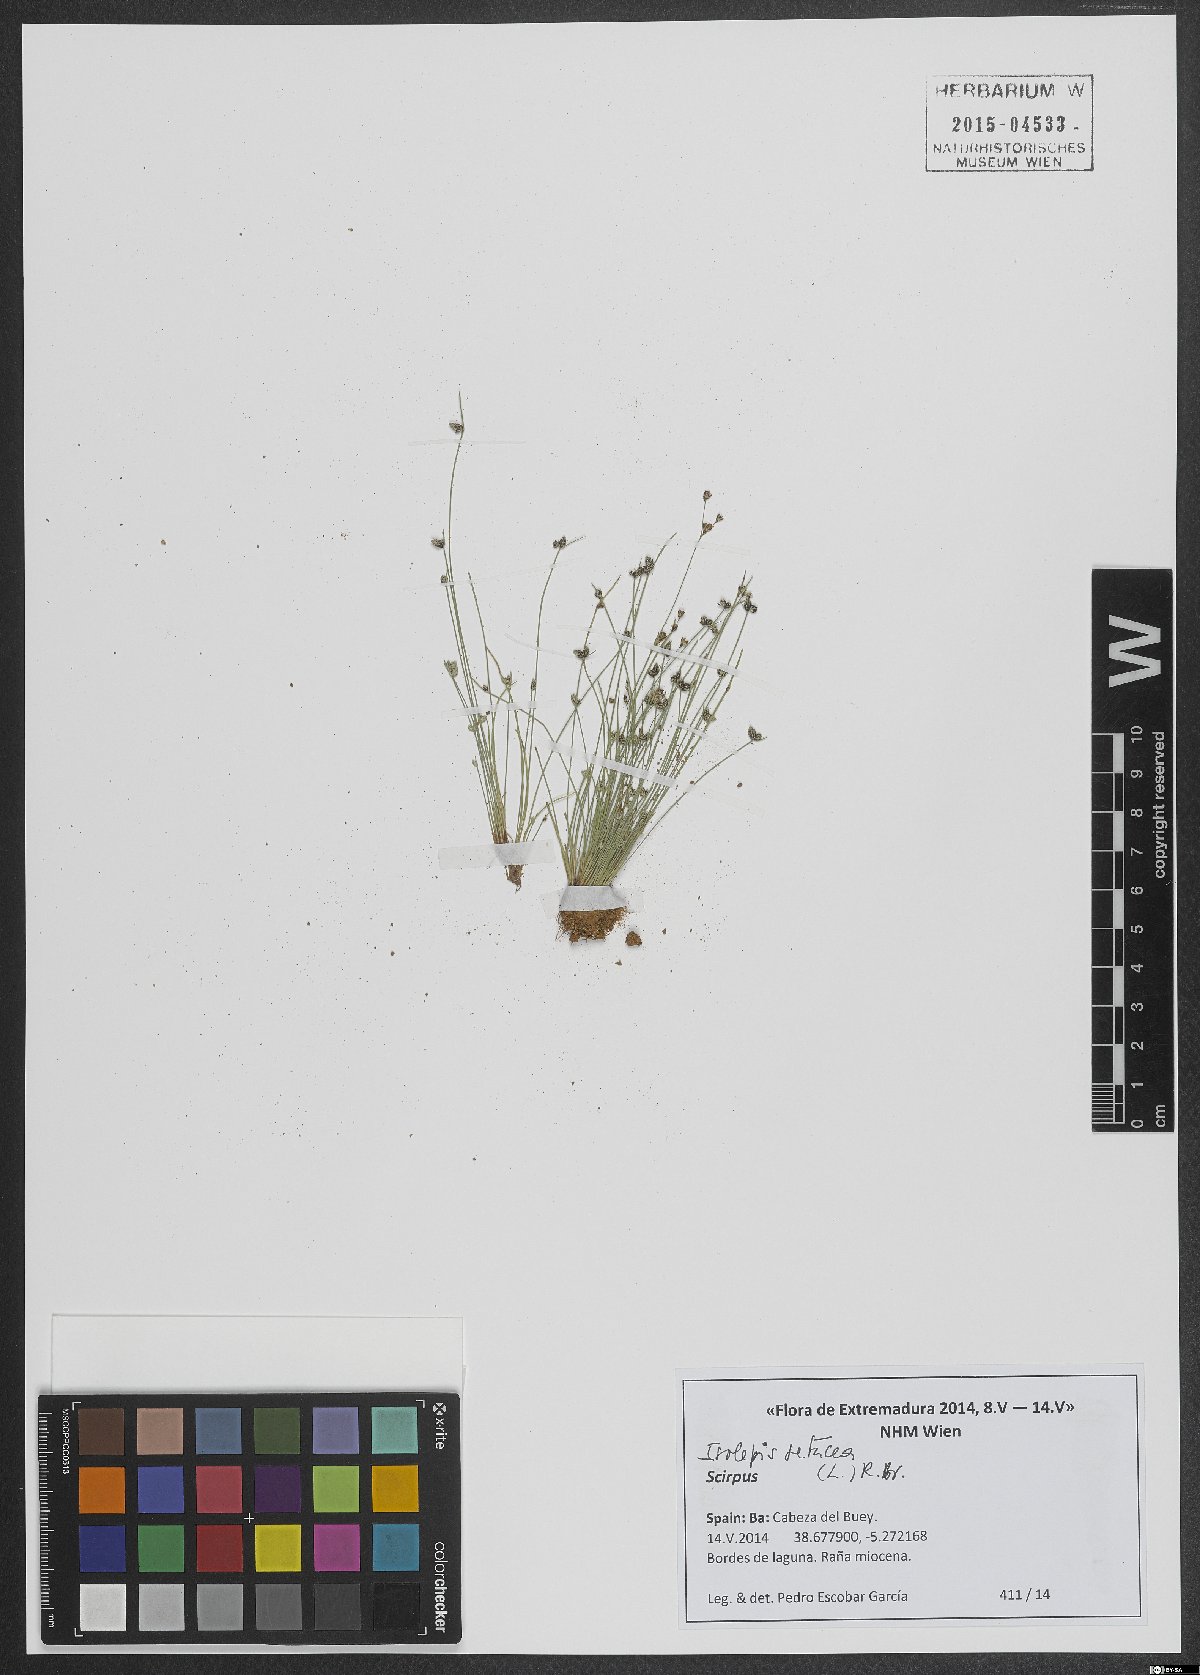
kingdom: Plantae
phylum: Tracheophyta
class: Liliopsida
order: Poales
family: Cyperaceae
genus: Isolepis
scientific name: Isolepis setacea
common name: Bristle club-rush
